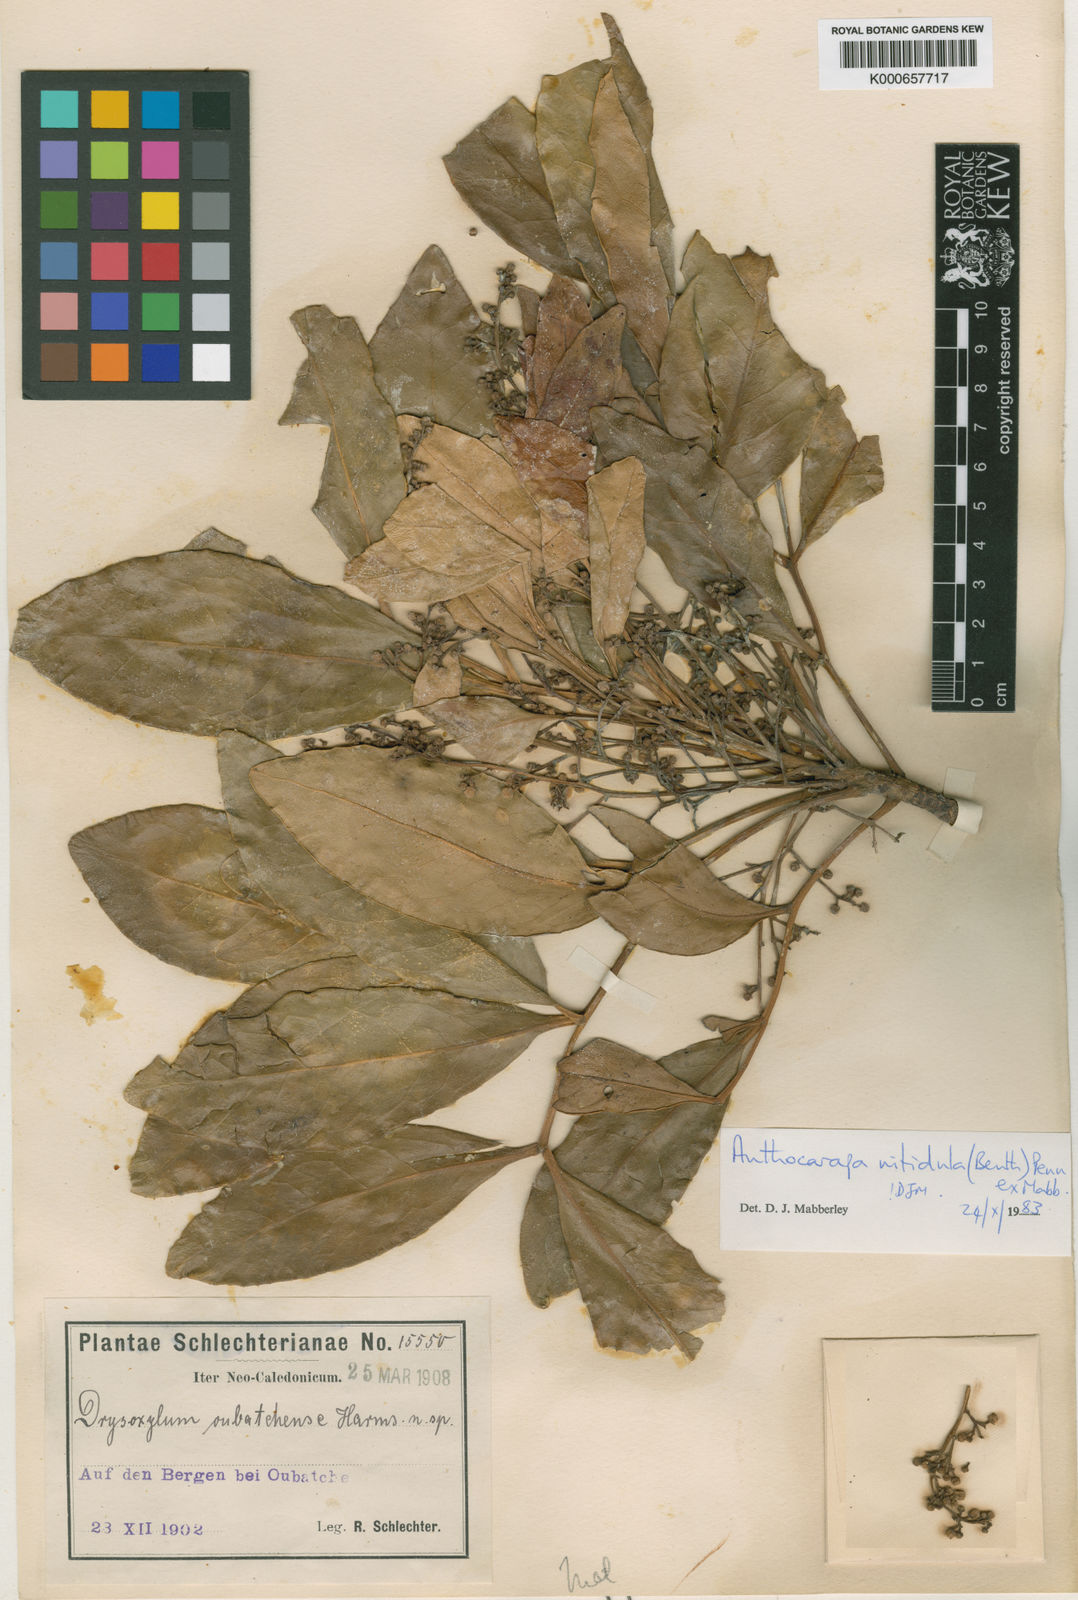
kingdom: Plantae
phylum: Tracheophyta
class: Magnoliopsida
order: Sapindales
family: Meliaceae
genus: Anthocarapa
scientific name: Anthocarapa nitidula
